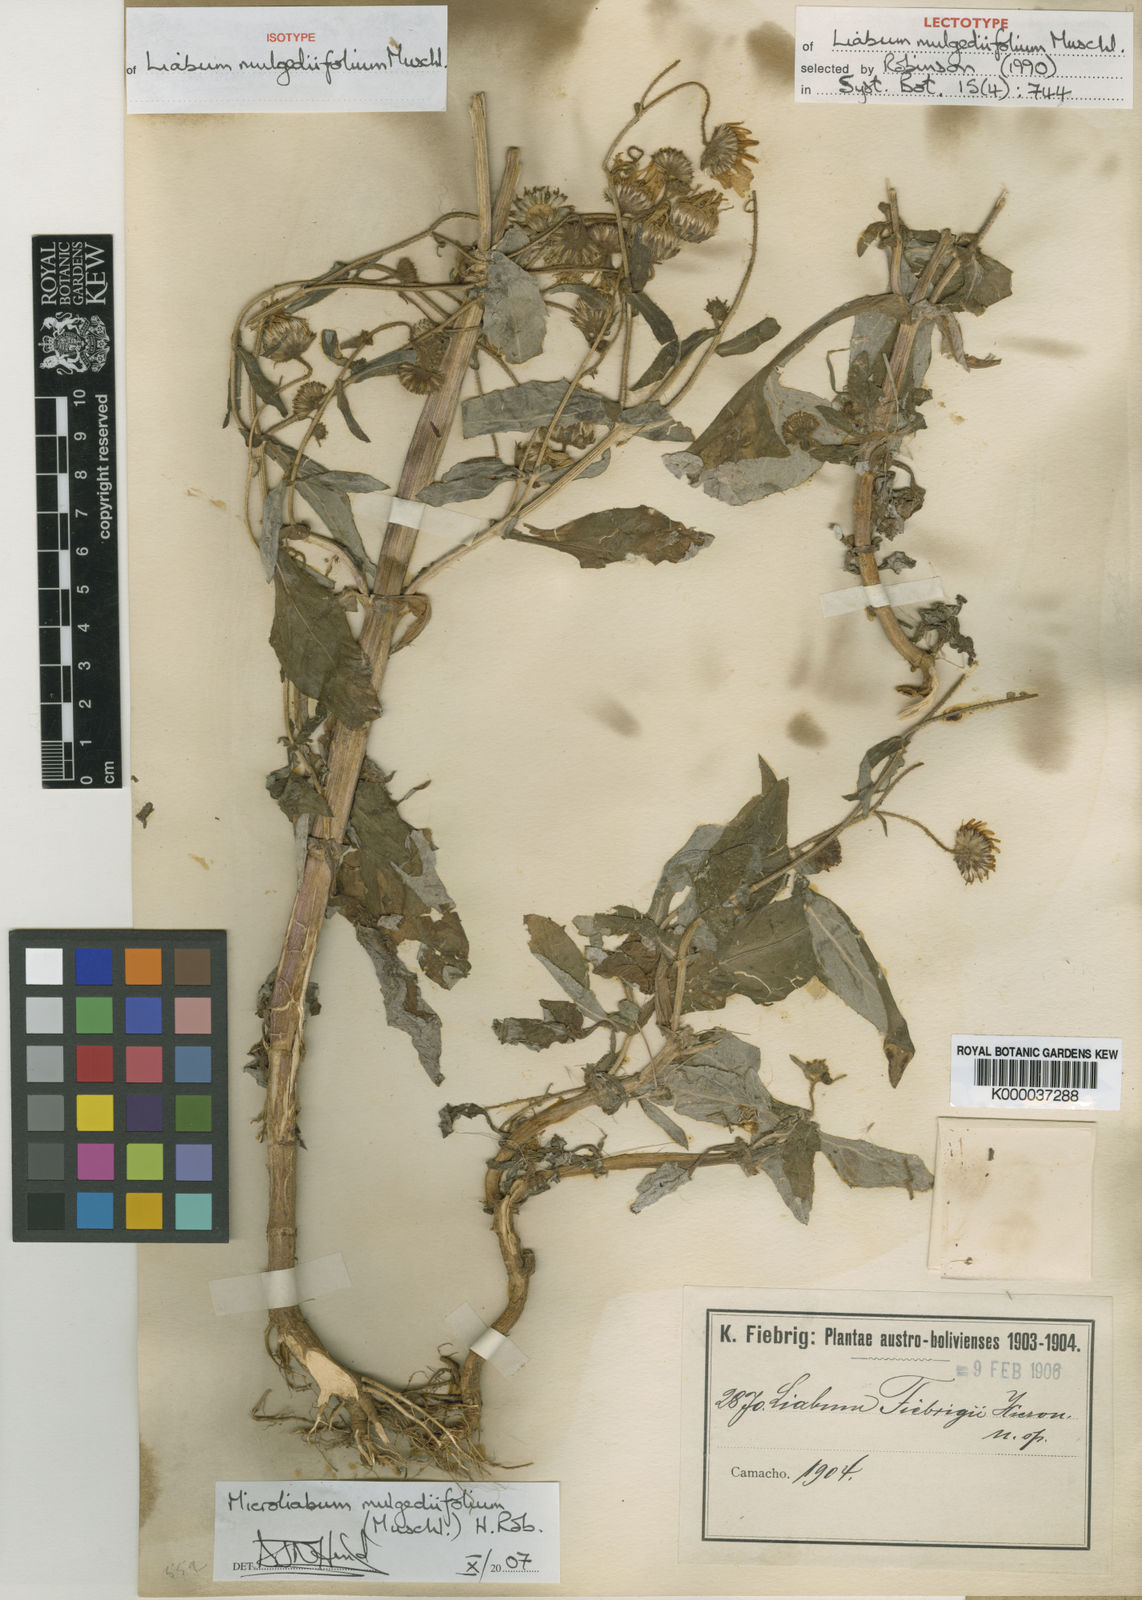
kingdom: Plantae
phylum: Tracheophyta
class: Magnoliopsida
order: Asterales
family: Asteraceae
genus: Microliabum
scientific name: Microliabum mulgediifolium
